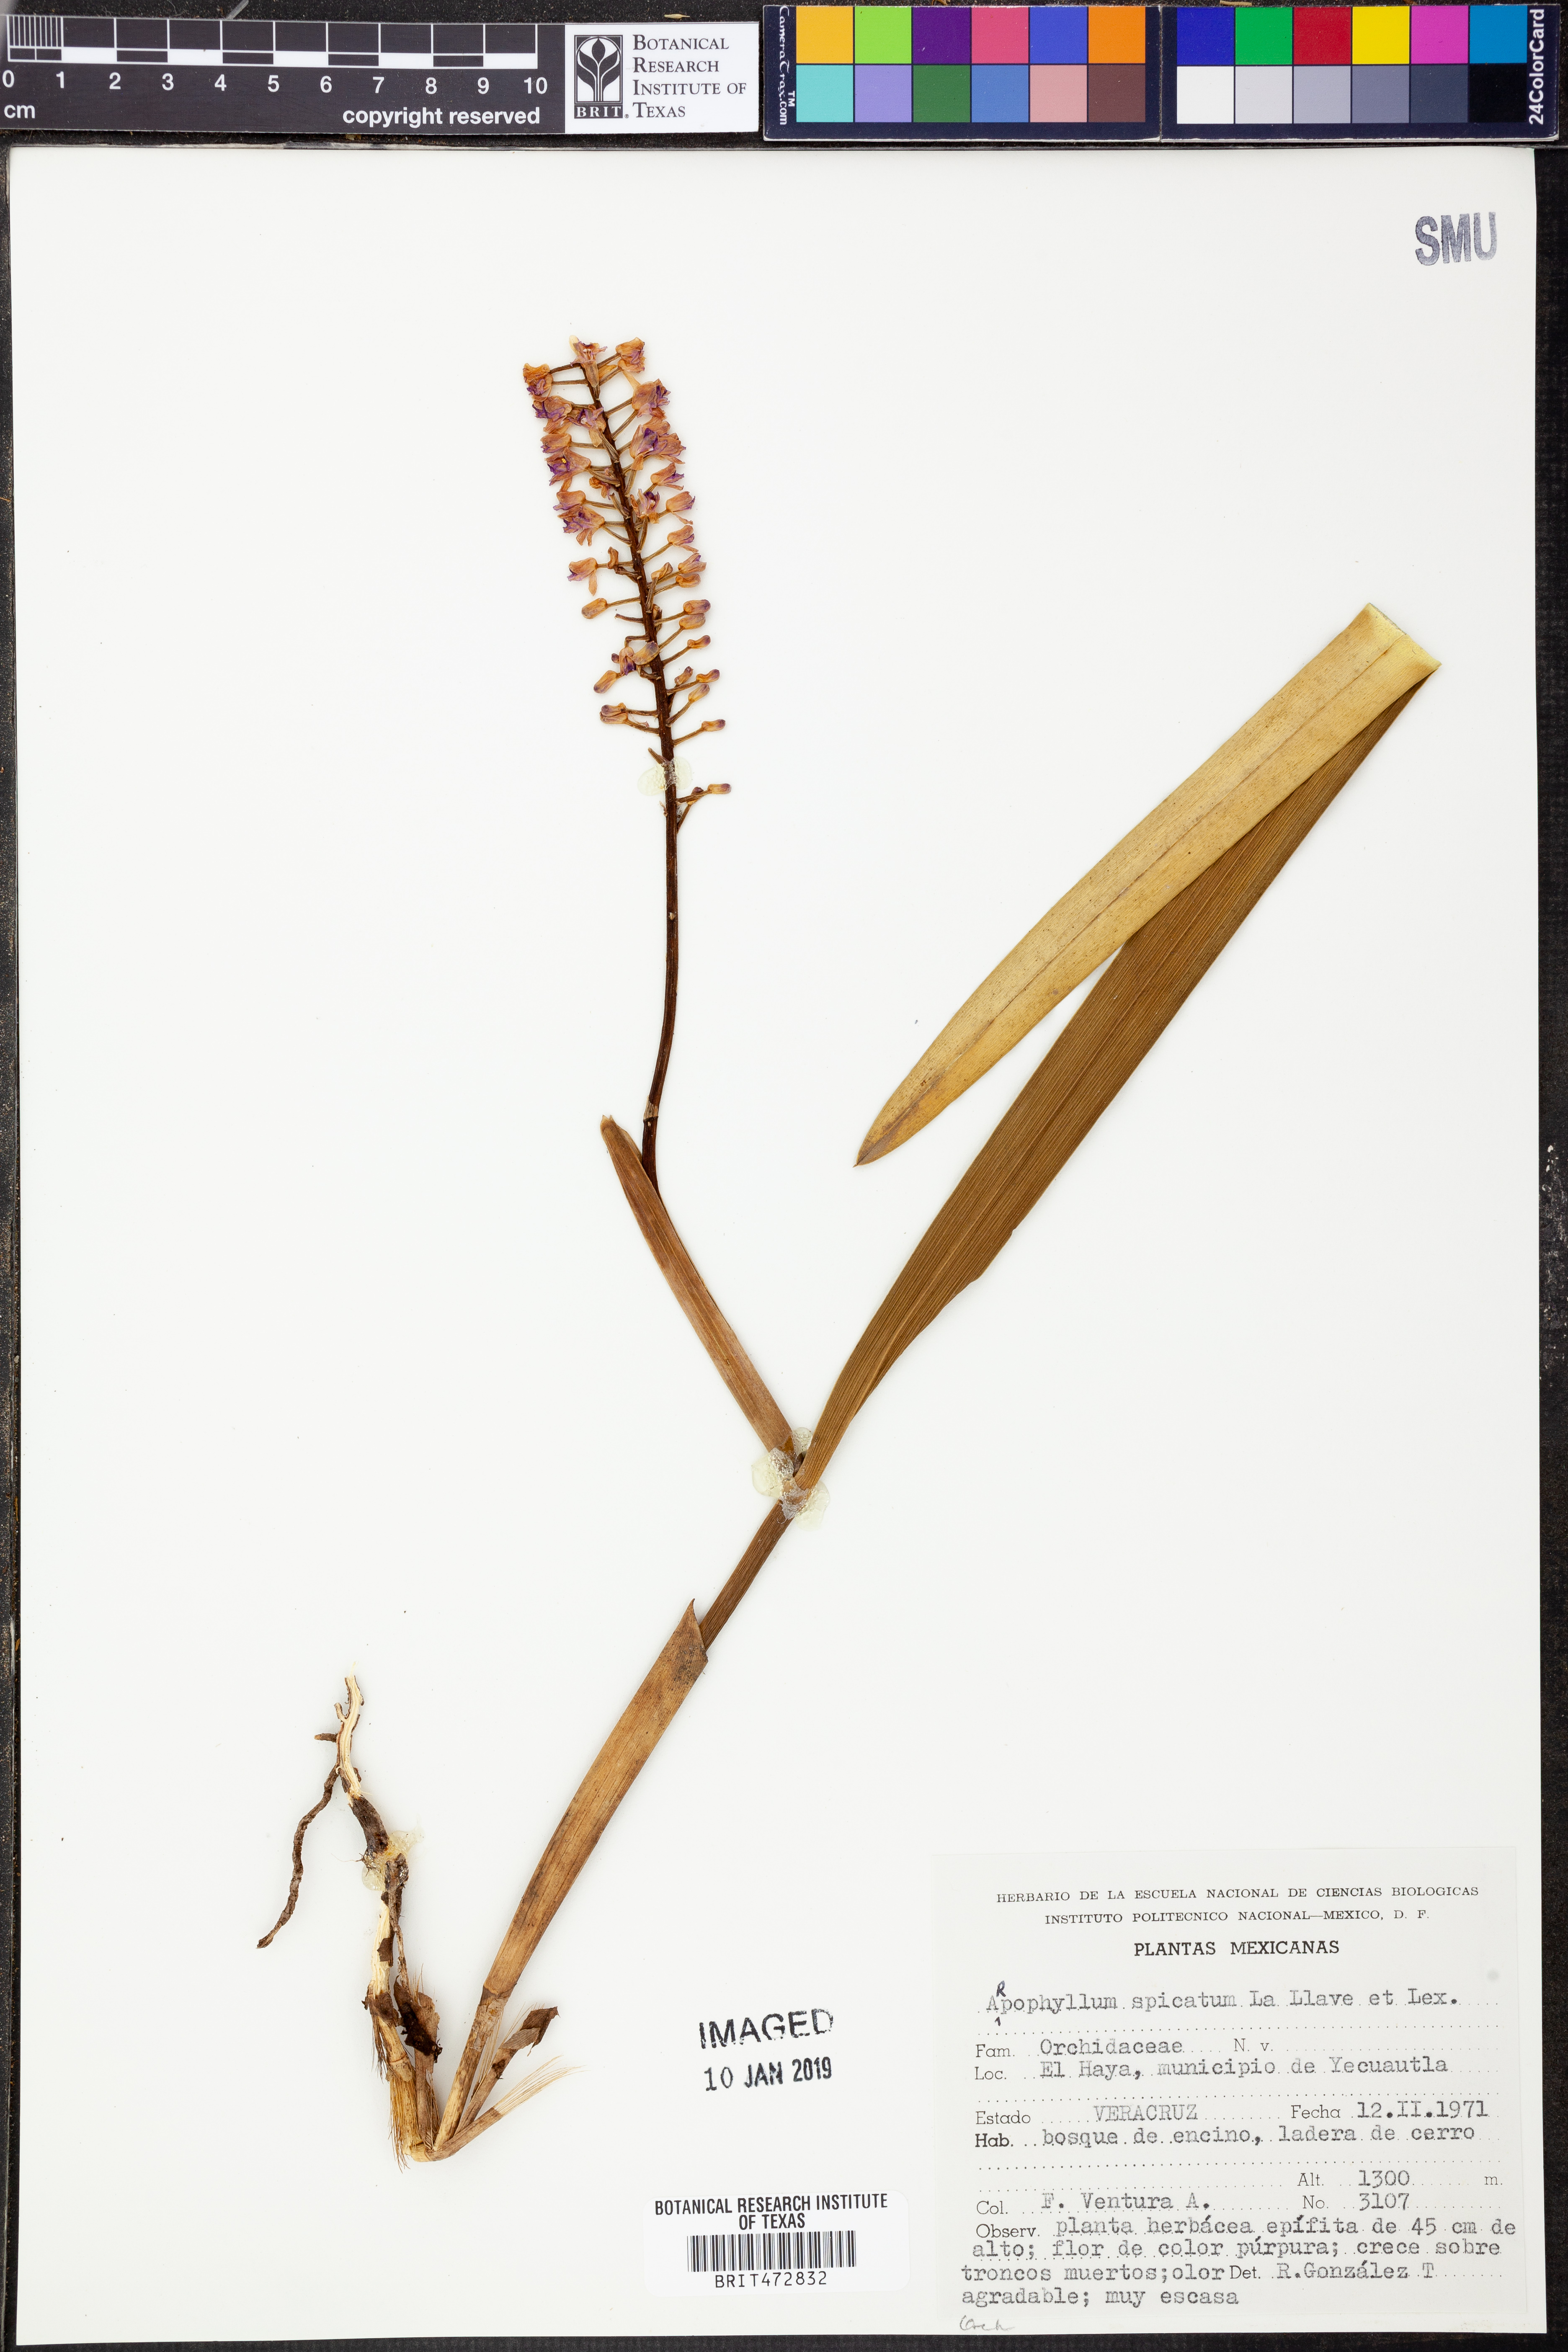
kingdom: Plantae
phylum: Tracheophyta
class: Liliopsida
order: Asparagales
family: Orchidaceae
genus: Arpophyllum
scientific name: Arpophyllum spicatum
